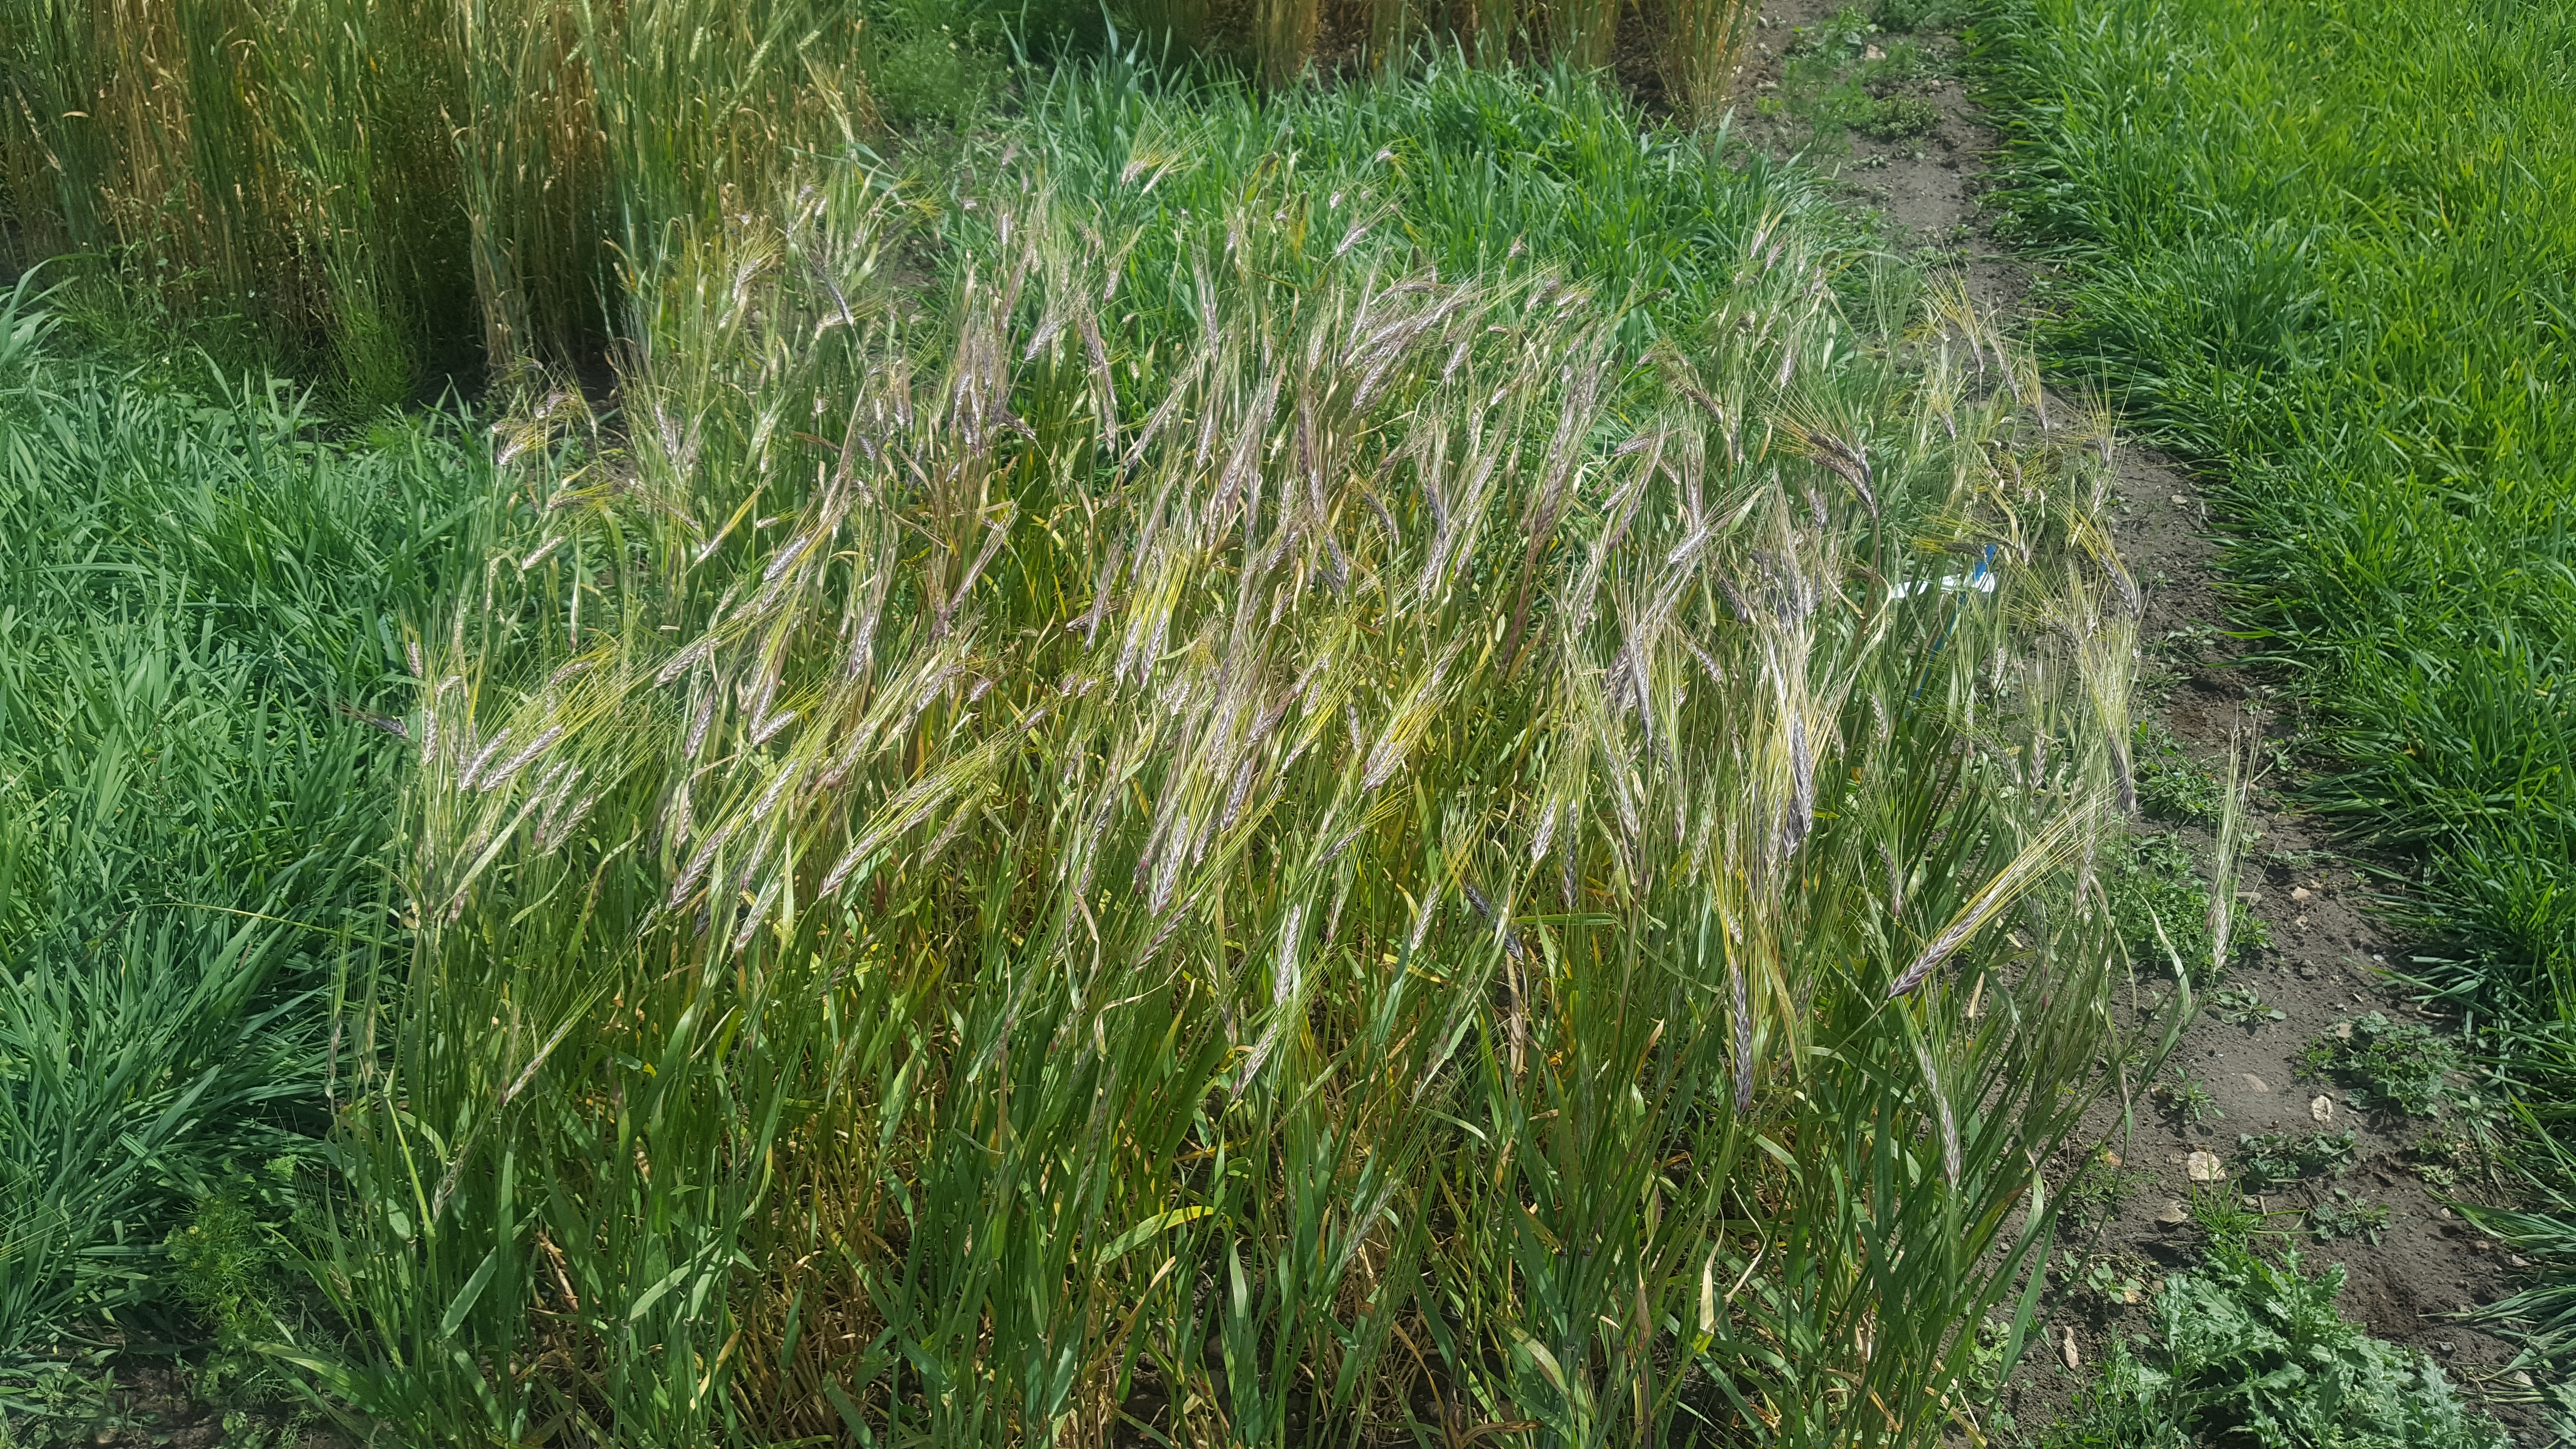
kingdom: Plantae
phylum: Tracheophyta
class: Liliopsida
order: Poales
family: Poaceae
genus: Hordeum
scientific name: Hordeum vulgare
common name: Common barley
